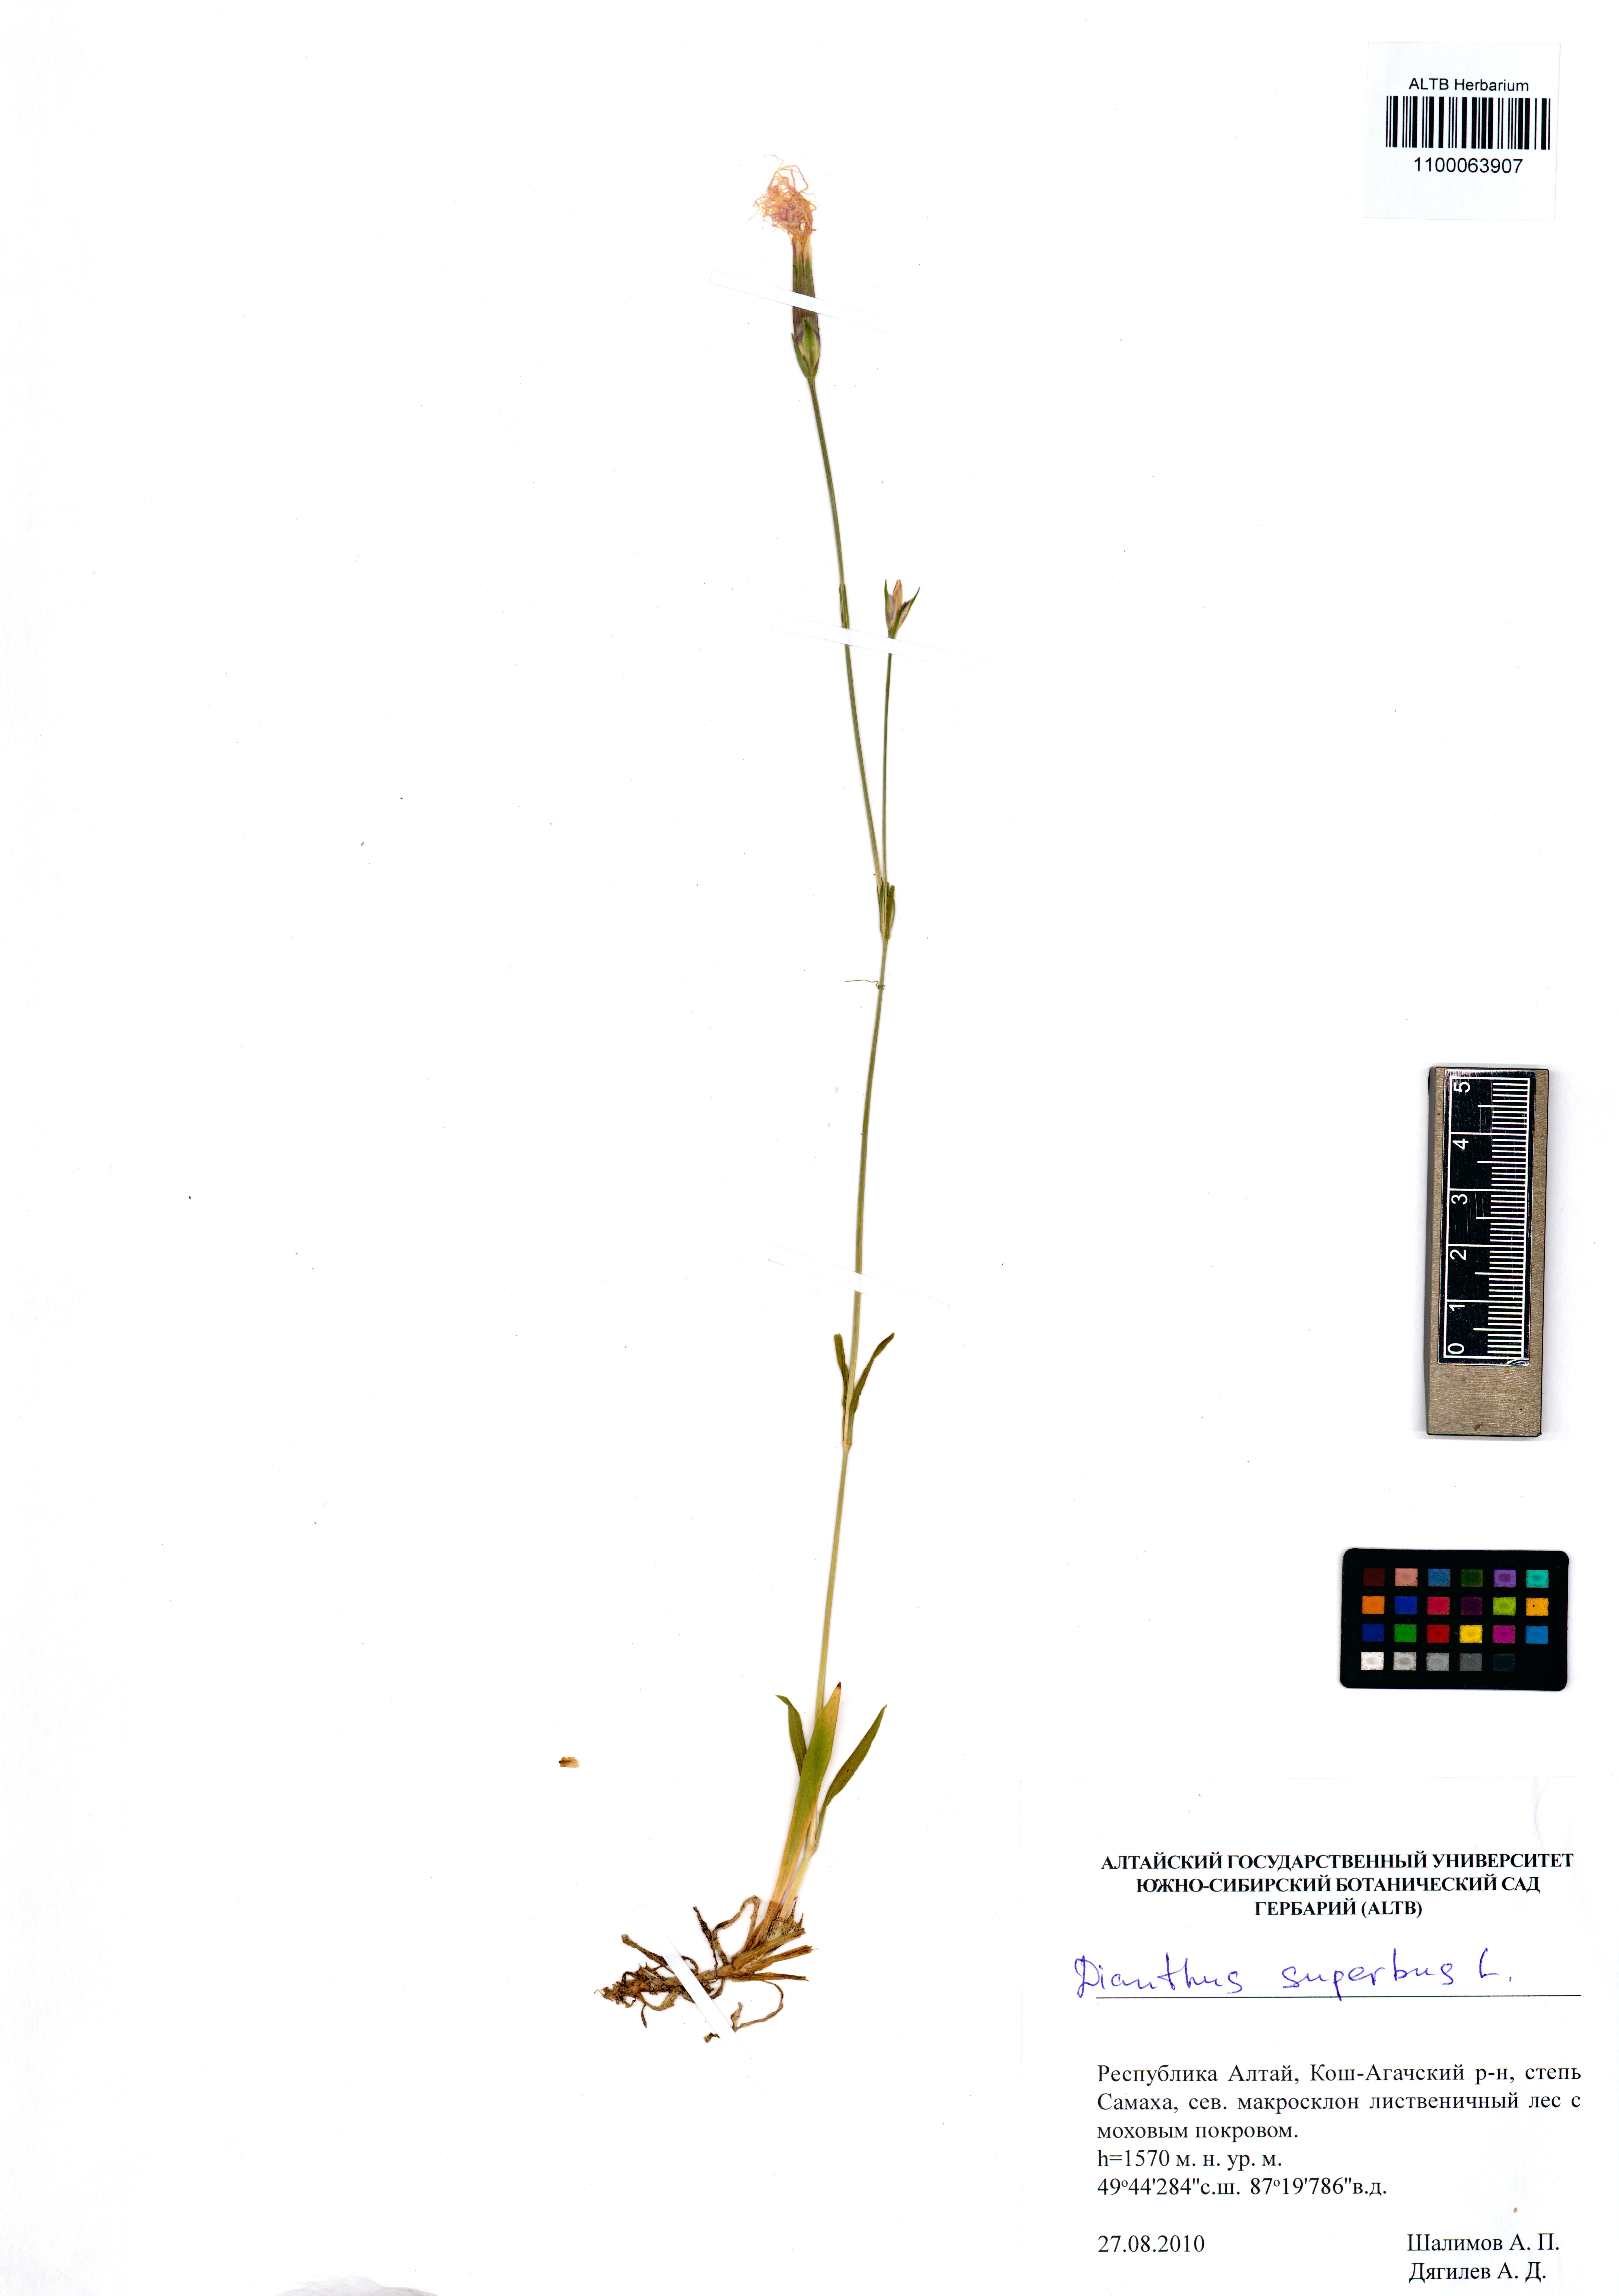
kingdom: Plantae
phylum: Tracheophyta
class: Magnoliopsida
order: Caryophyllales
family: Caryophyllaceae
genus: Dianthus
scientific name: Dianthus superbus
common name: Fringed pink
